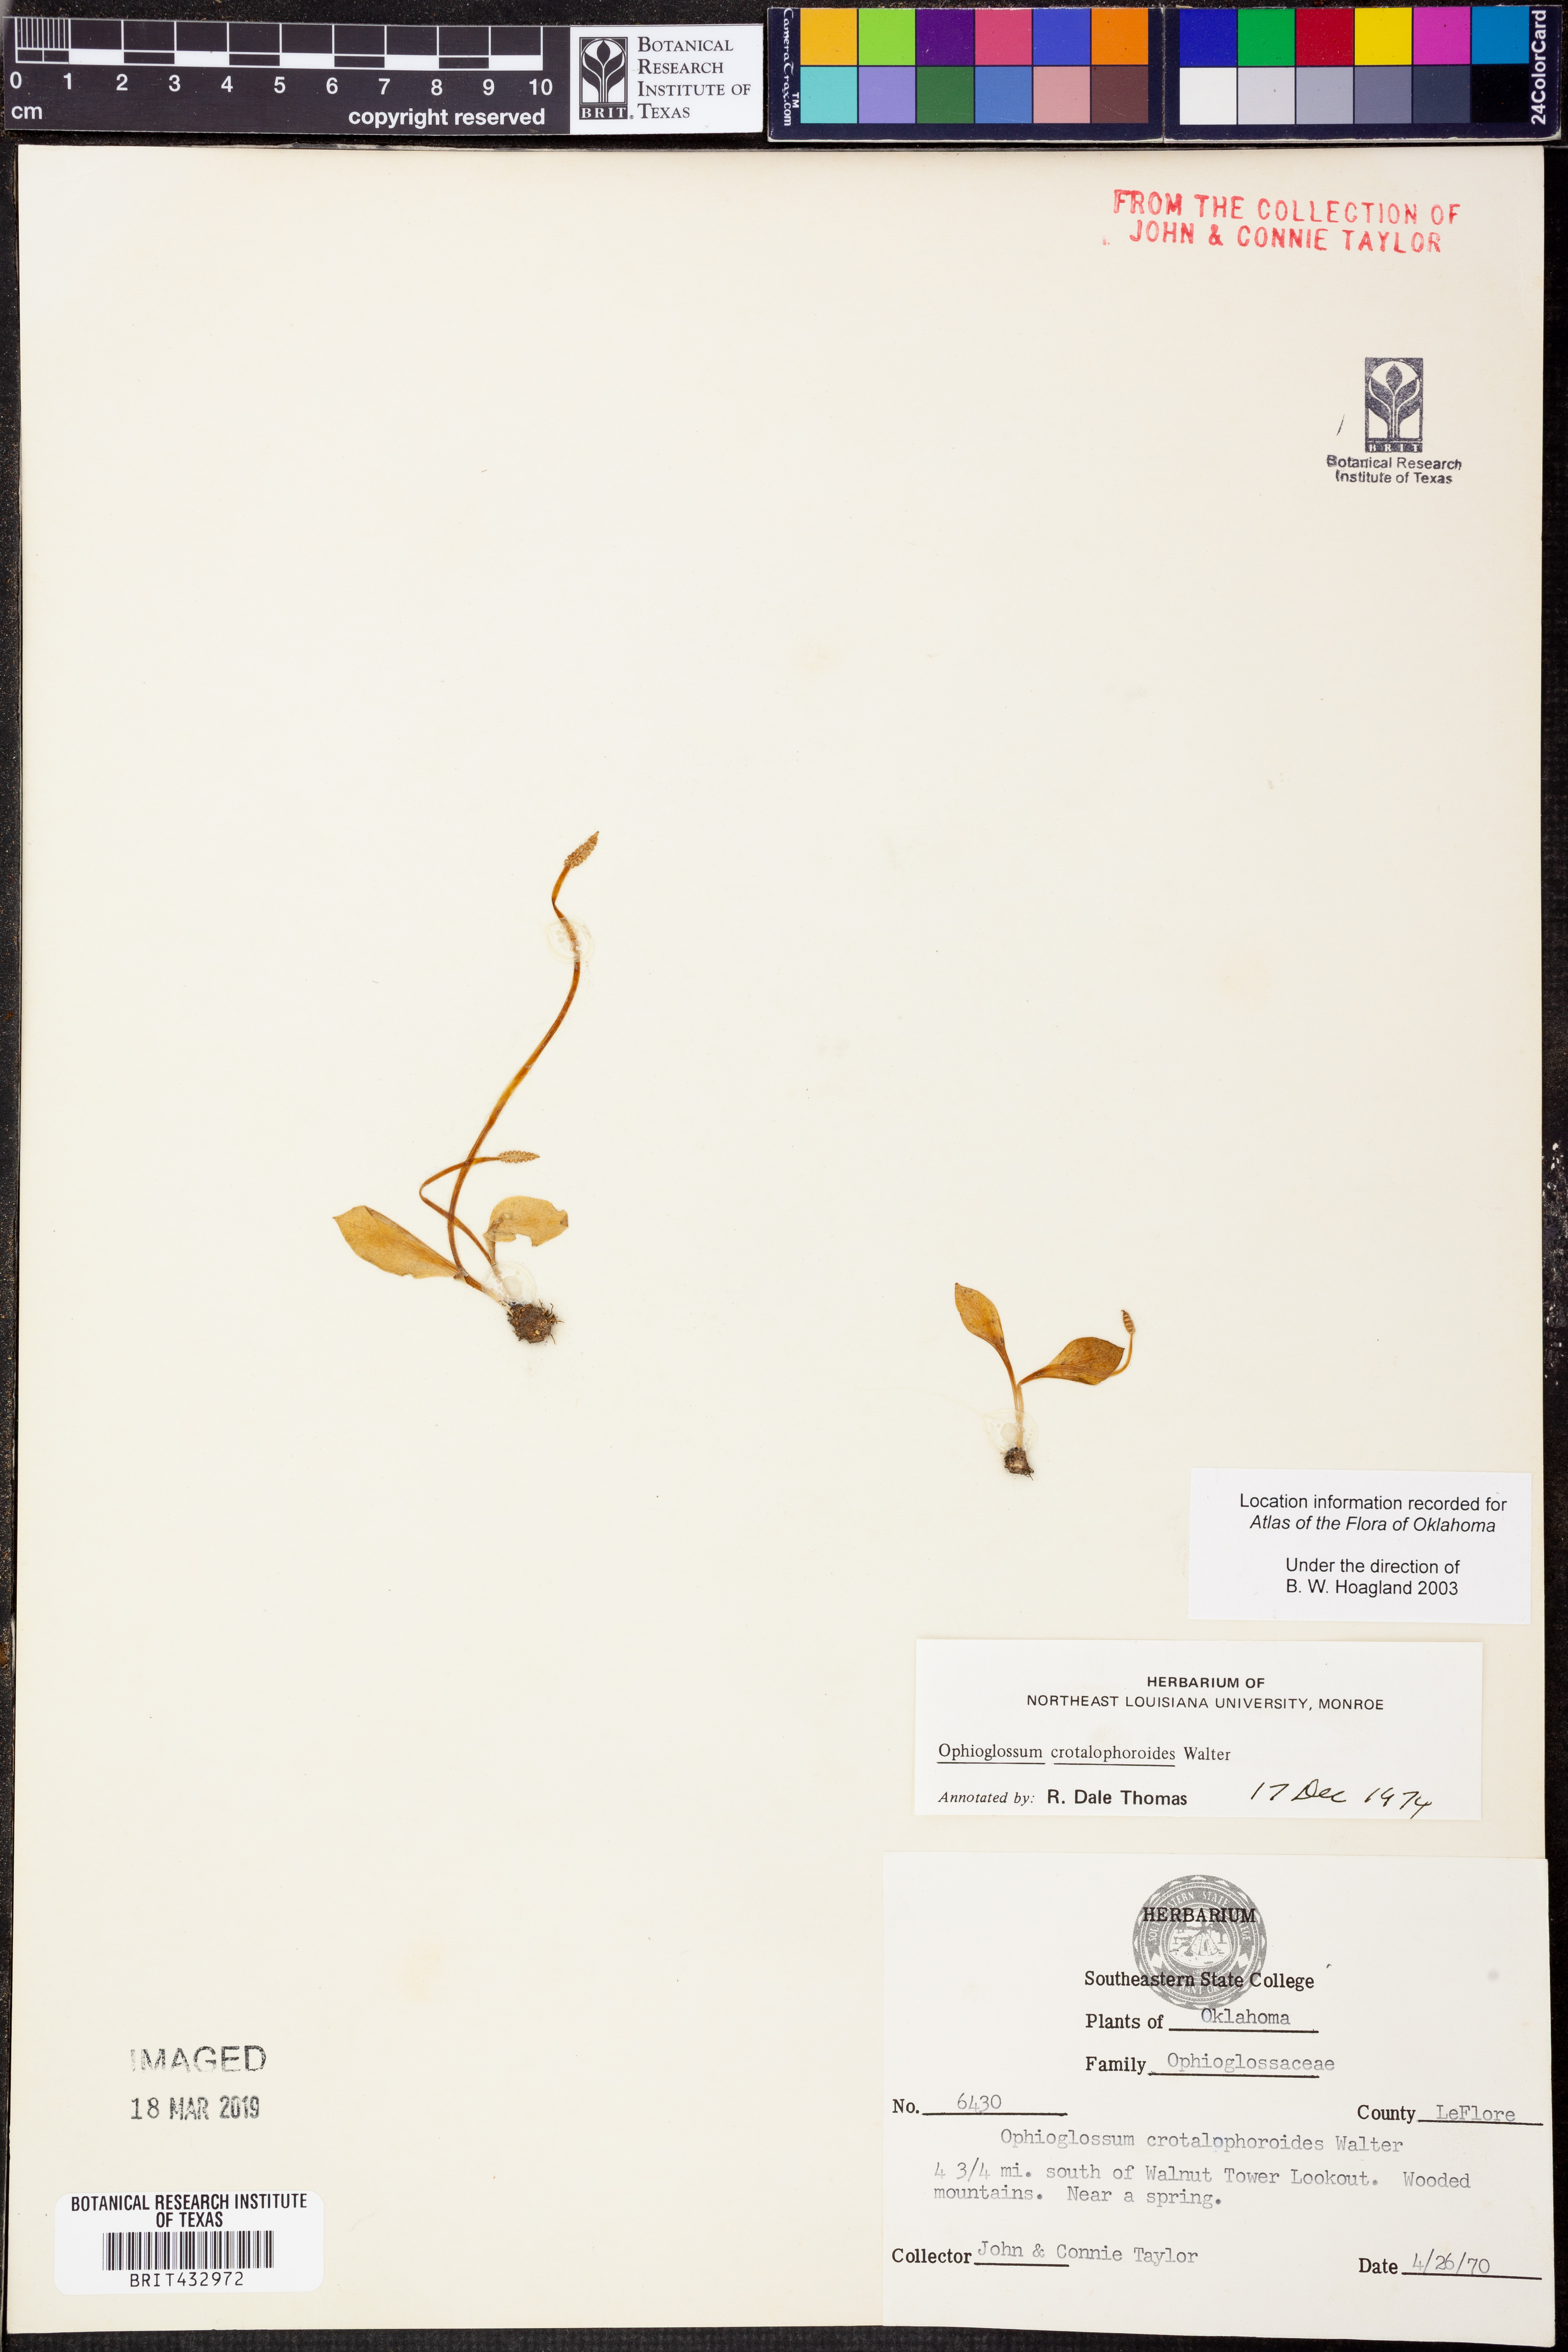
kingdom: Plantae
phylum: Tracheophyta
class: Polypodiopsida
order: Ophioglossales
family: Ophioglossaceae
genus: Ophioglossum
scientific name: Ophioglossum crotalophoroides
